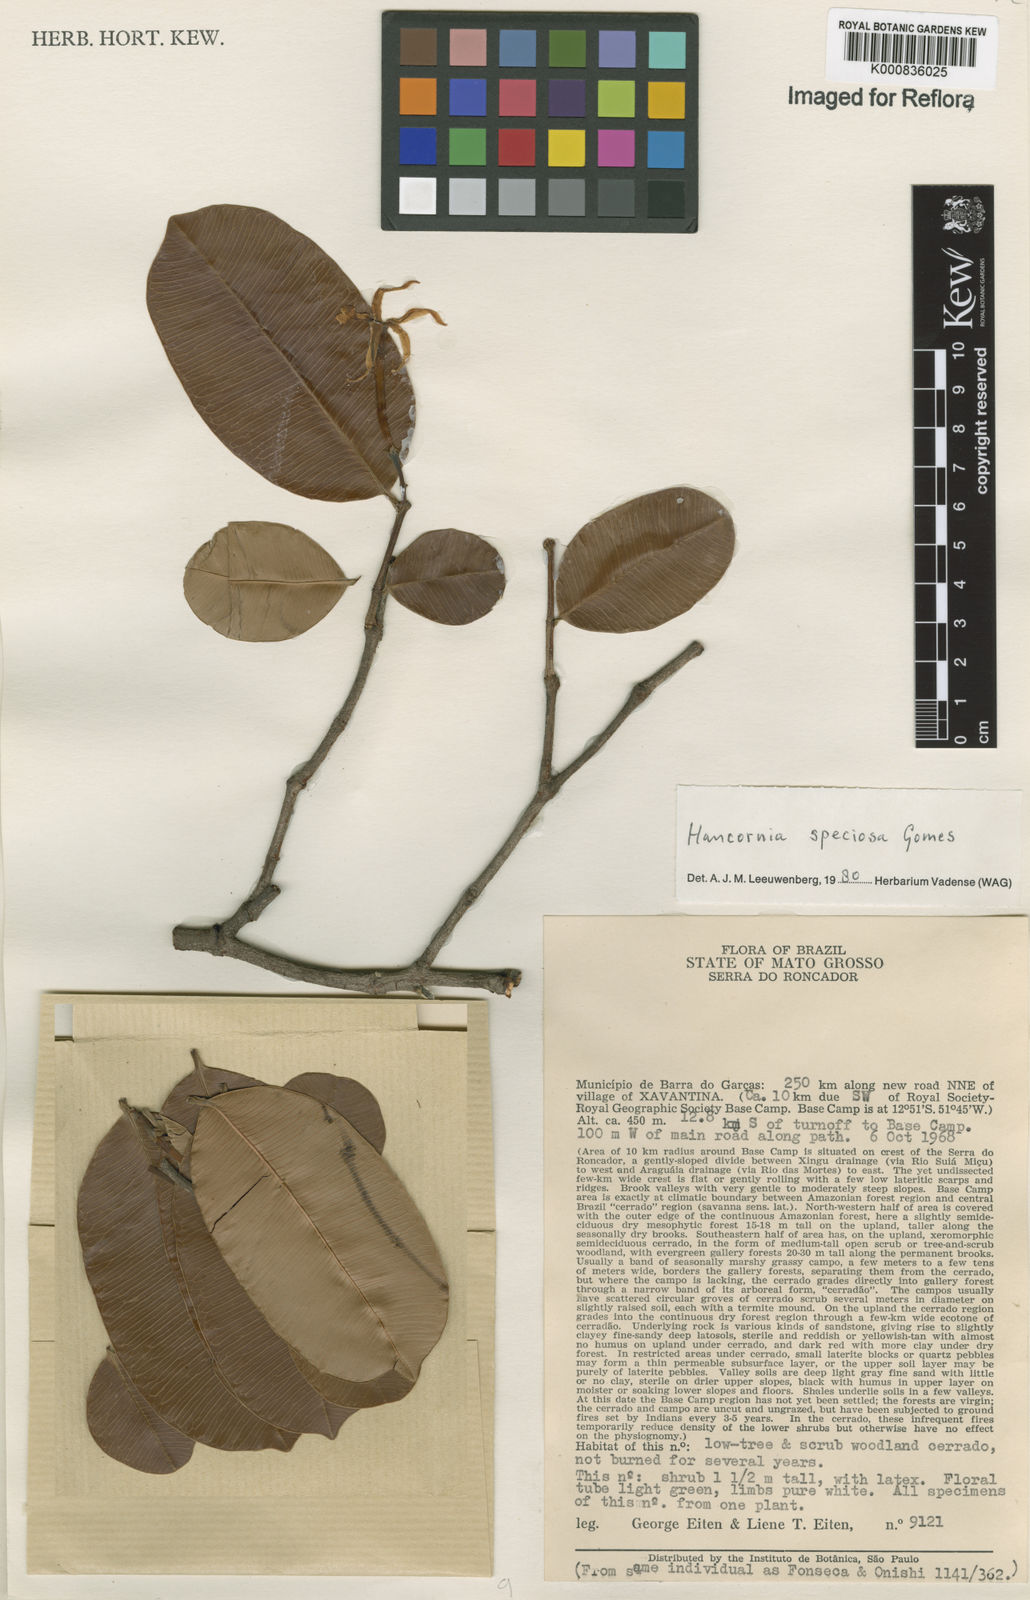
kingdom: Plantae
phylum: Tracheophyta
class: Magnoliopsida
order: Gentianales
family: Apocynaceae
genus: Hancornia
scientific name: Hancornia speciosa
